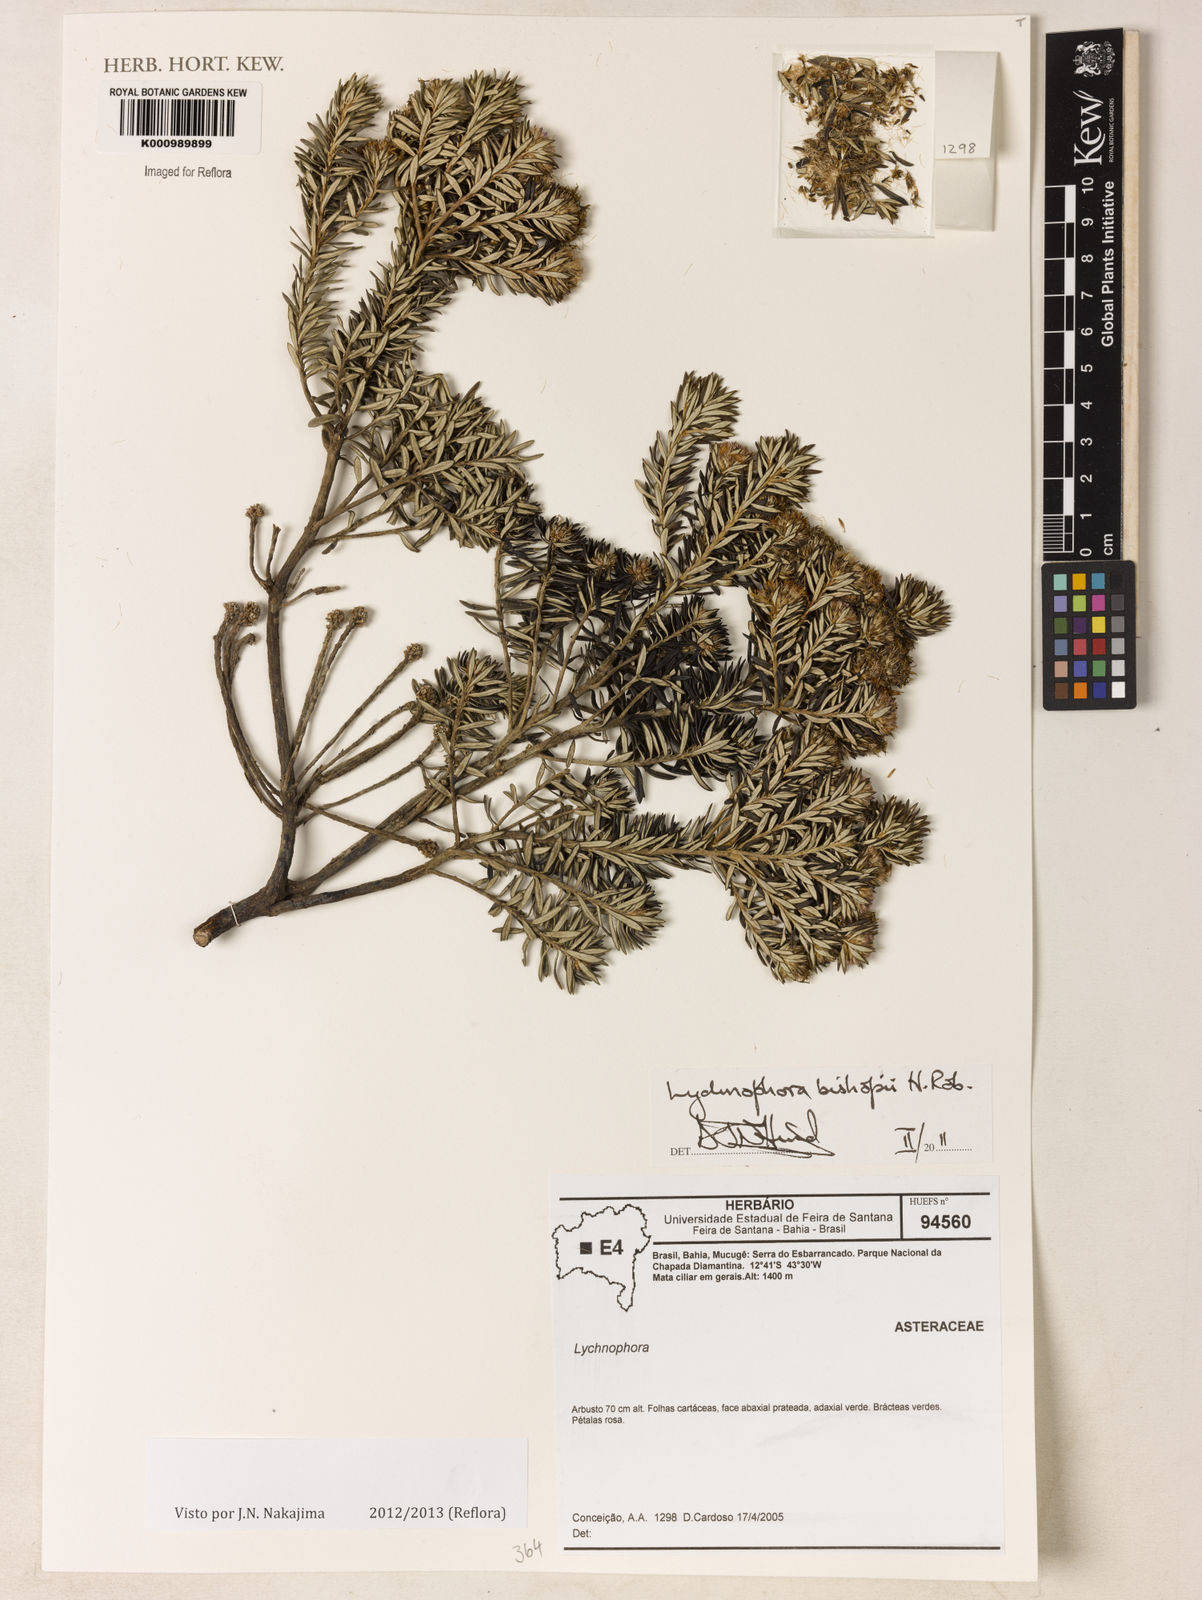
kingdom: Plantae
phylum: Tracheophyta
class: Magnoliopsida
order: Asterales
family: Asteraceae
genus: Lychnophorella
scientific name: Lychnophorella bishopii
